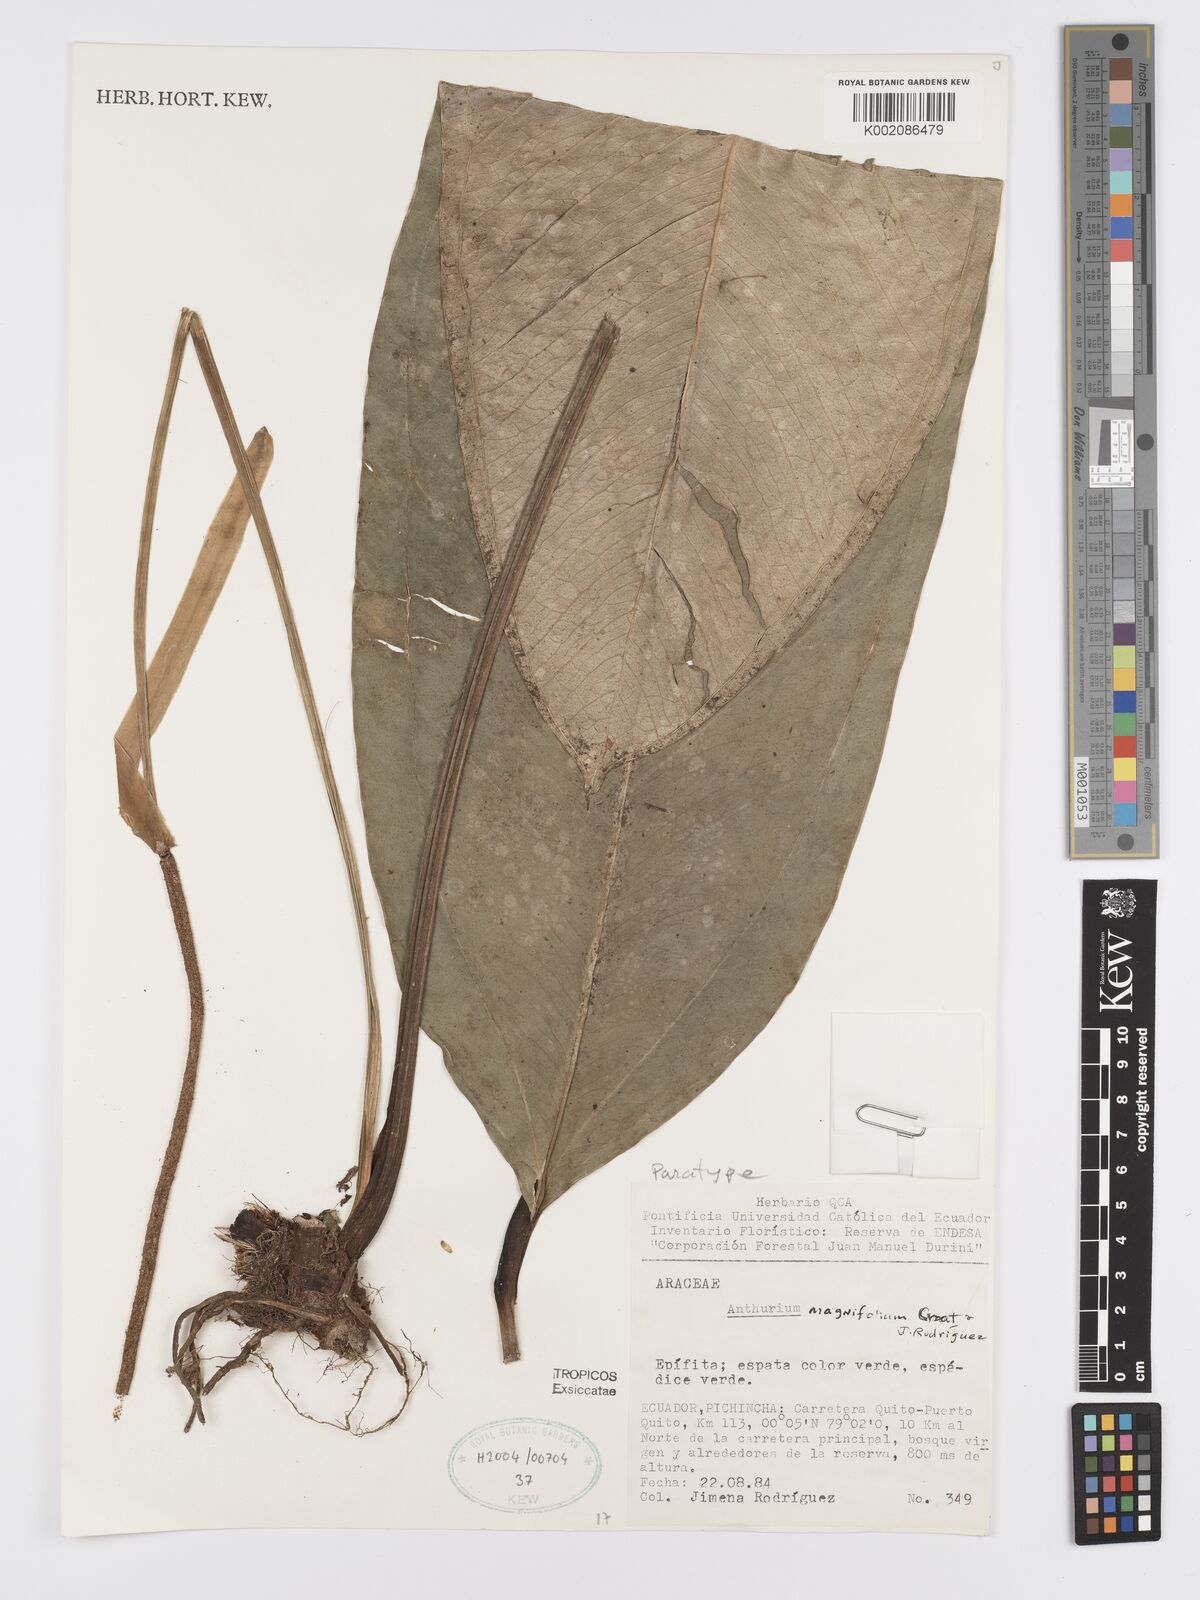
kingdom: Plantae
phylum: Tracheophyta
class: Liliopsida
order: Alismatales
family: Araceae
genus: Anthurium
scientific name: Anthurium magnifolium
